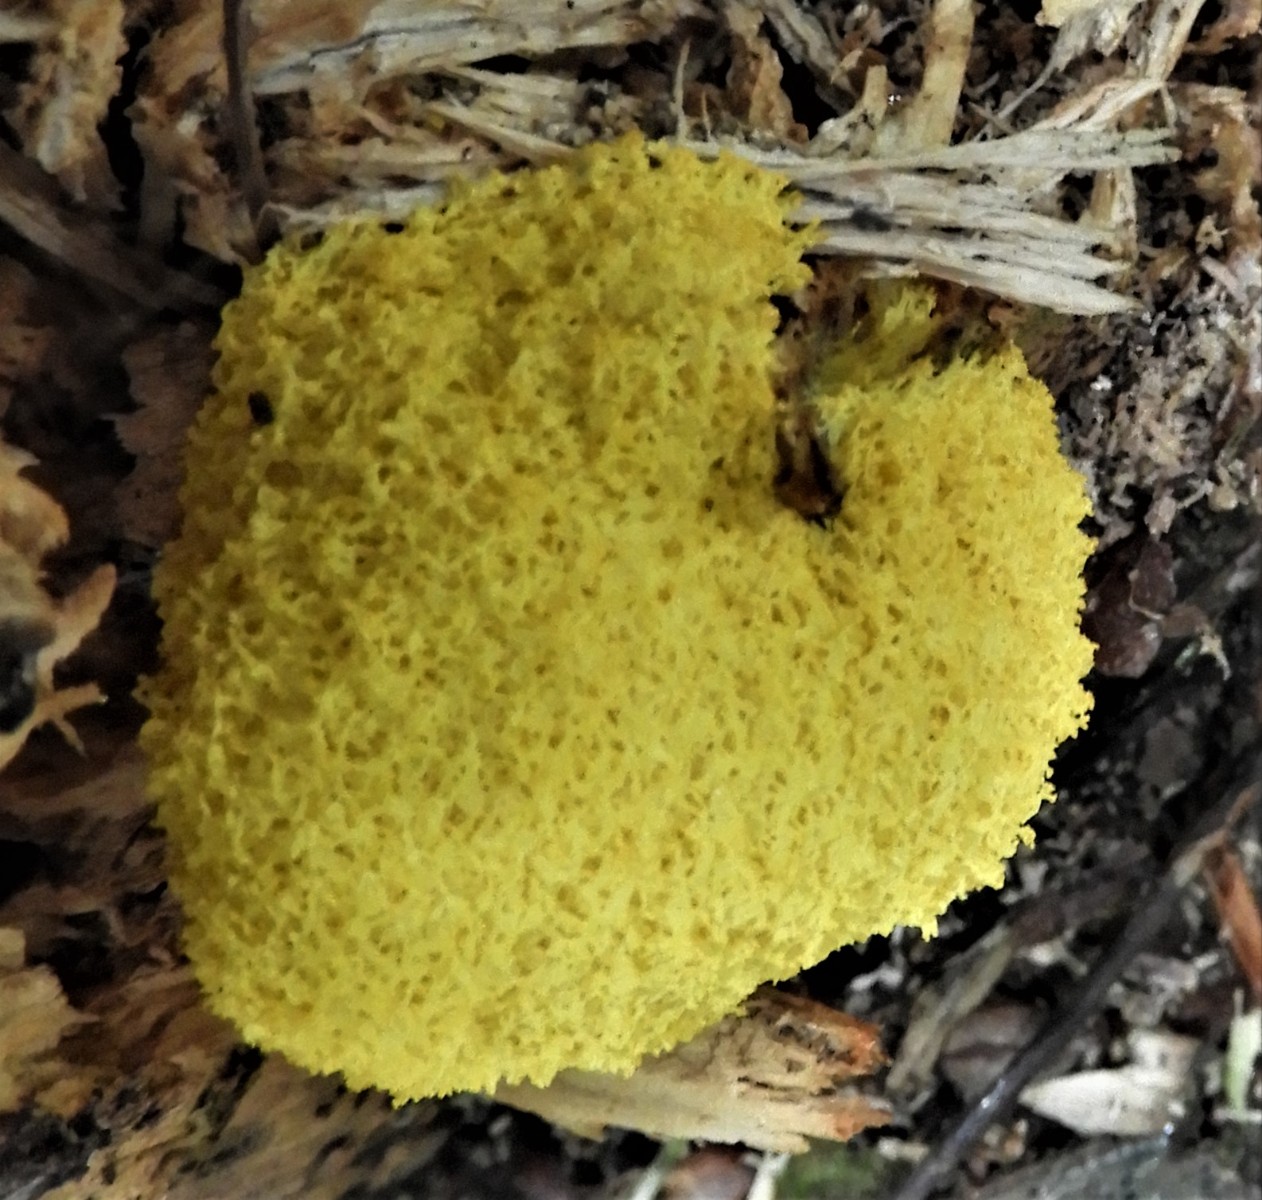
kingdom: Protozoa
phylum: Mycetozoa
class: Myxomycetes
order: Physarales
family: Physaraceae
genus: Fuligo
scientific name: Fuligo septica
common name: gul troldsmør
